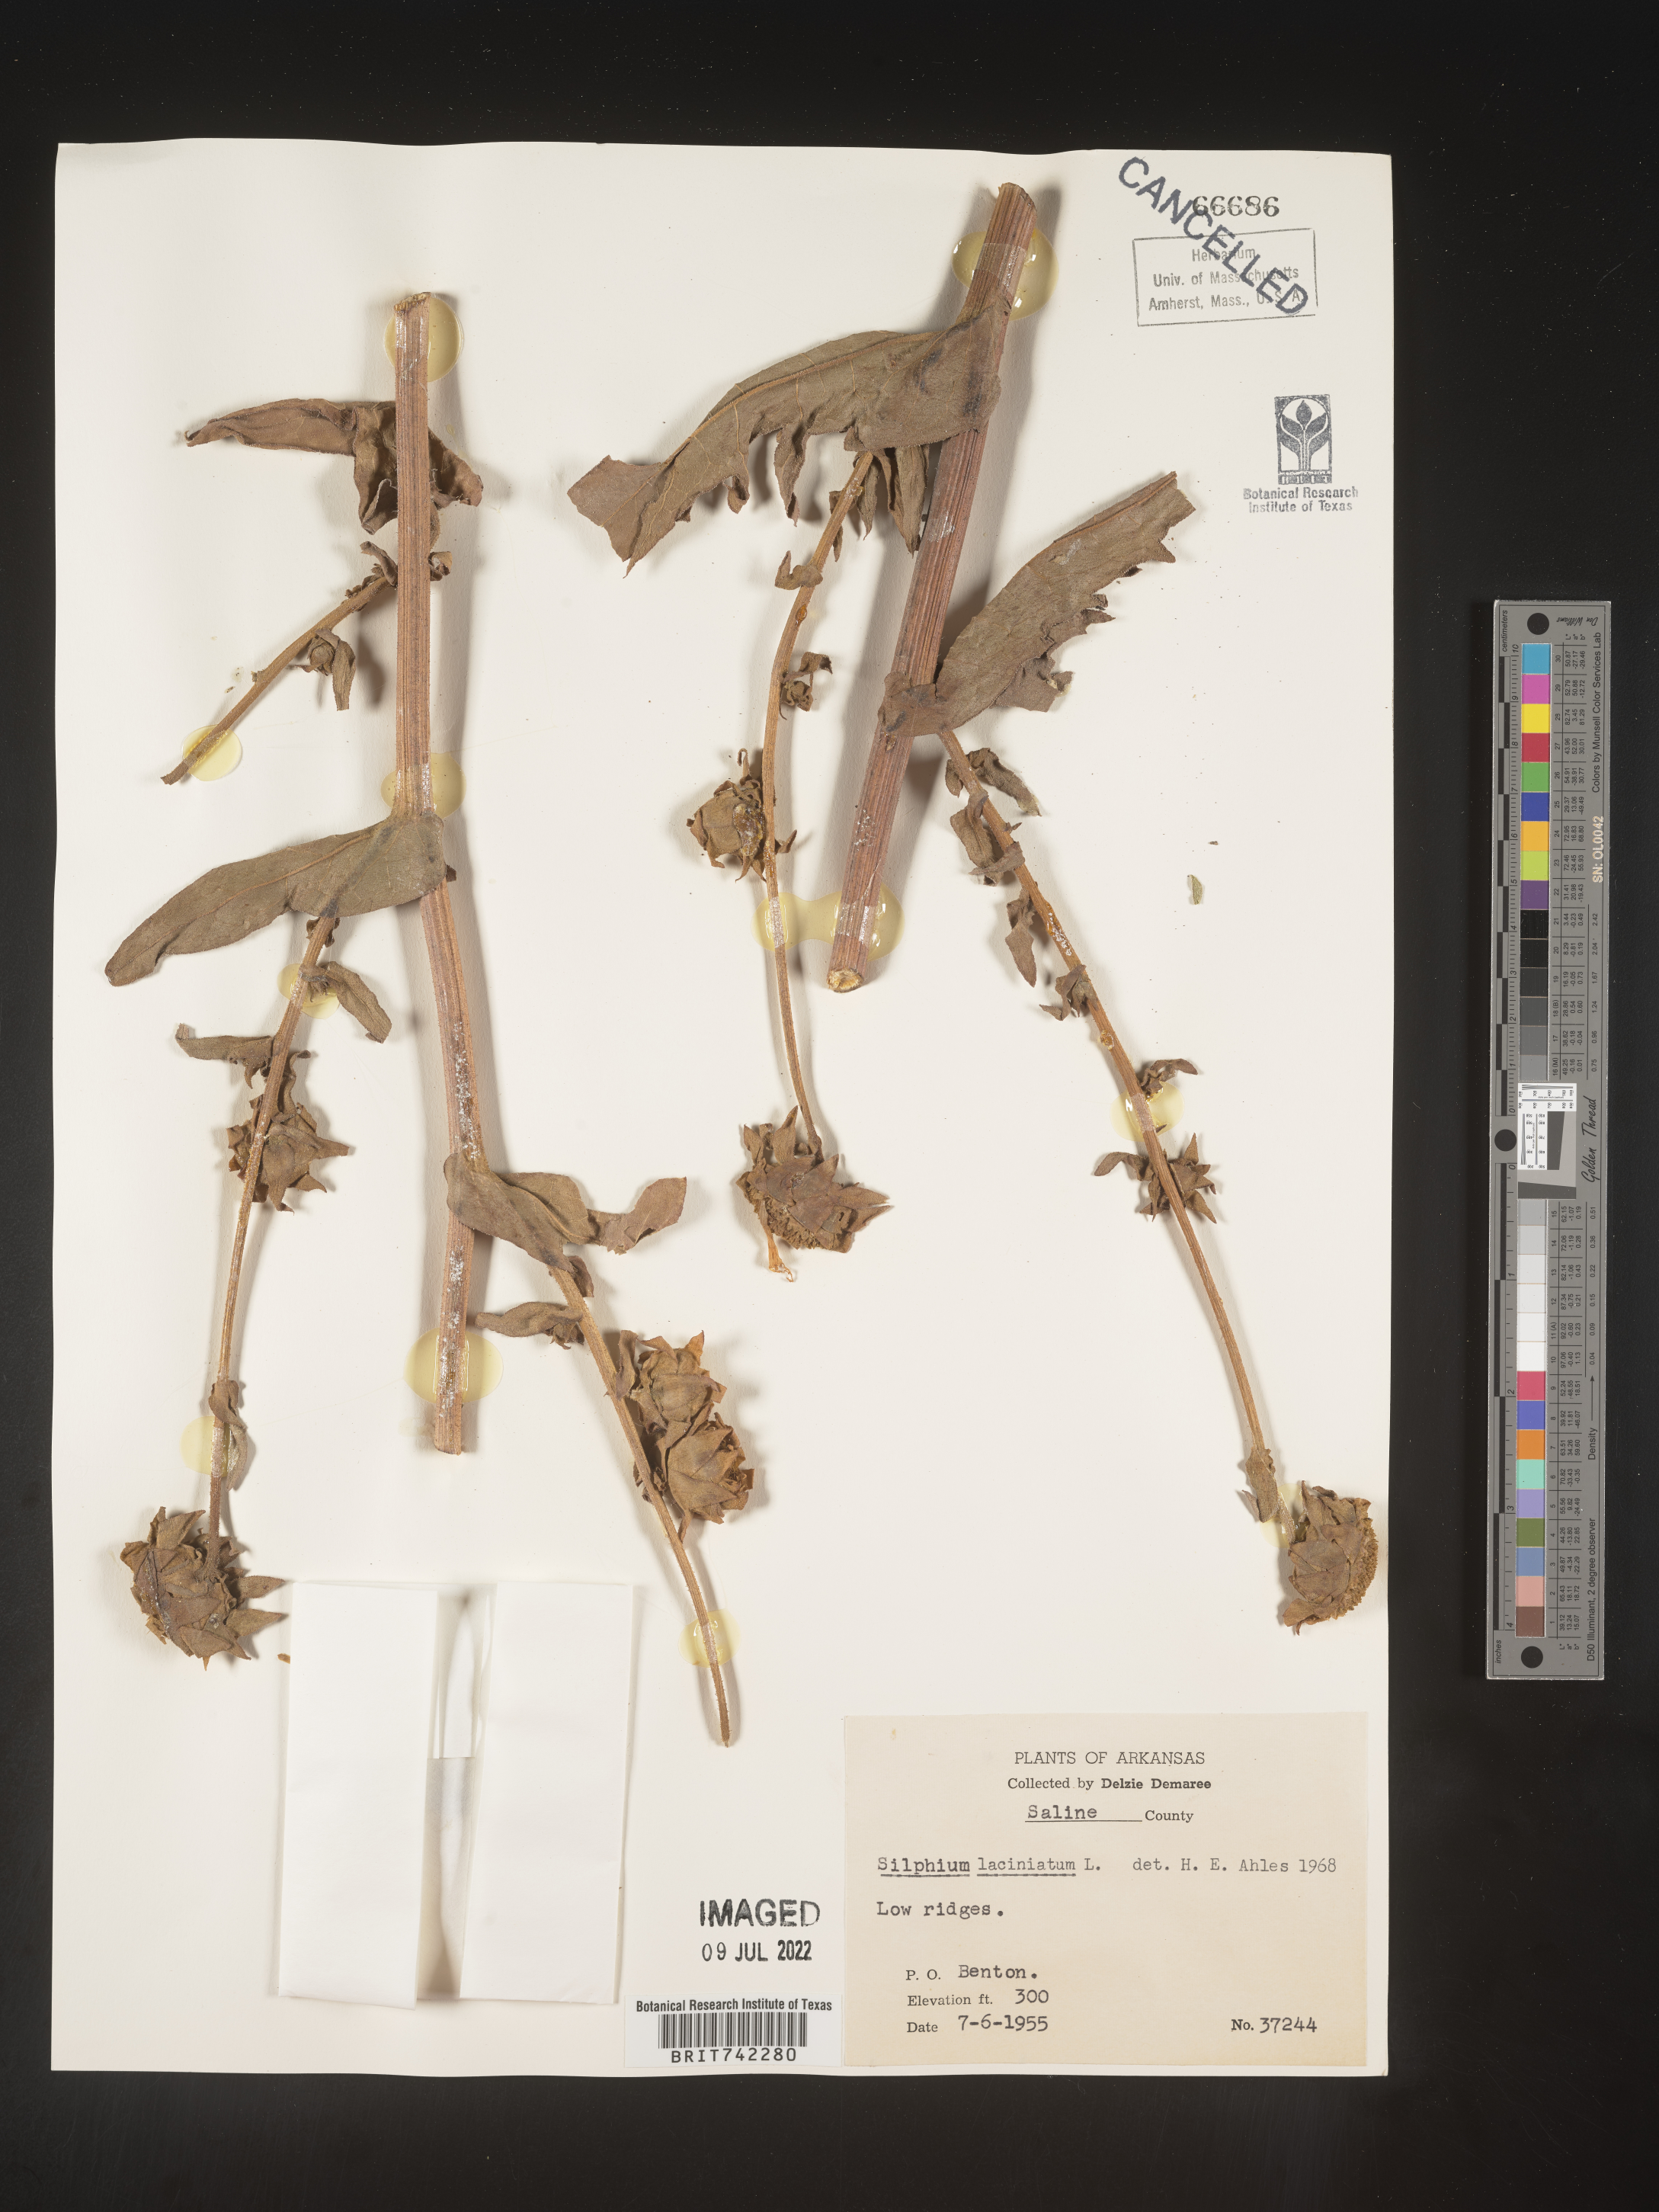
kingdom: Plantae
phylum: Tracheophyta
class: Magnoliopsida
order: Asterales
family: Asteraceae
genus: Silphium
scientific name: Silphium laciniatum
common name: Polarplant
